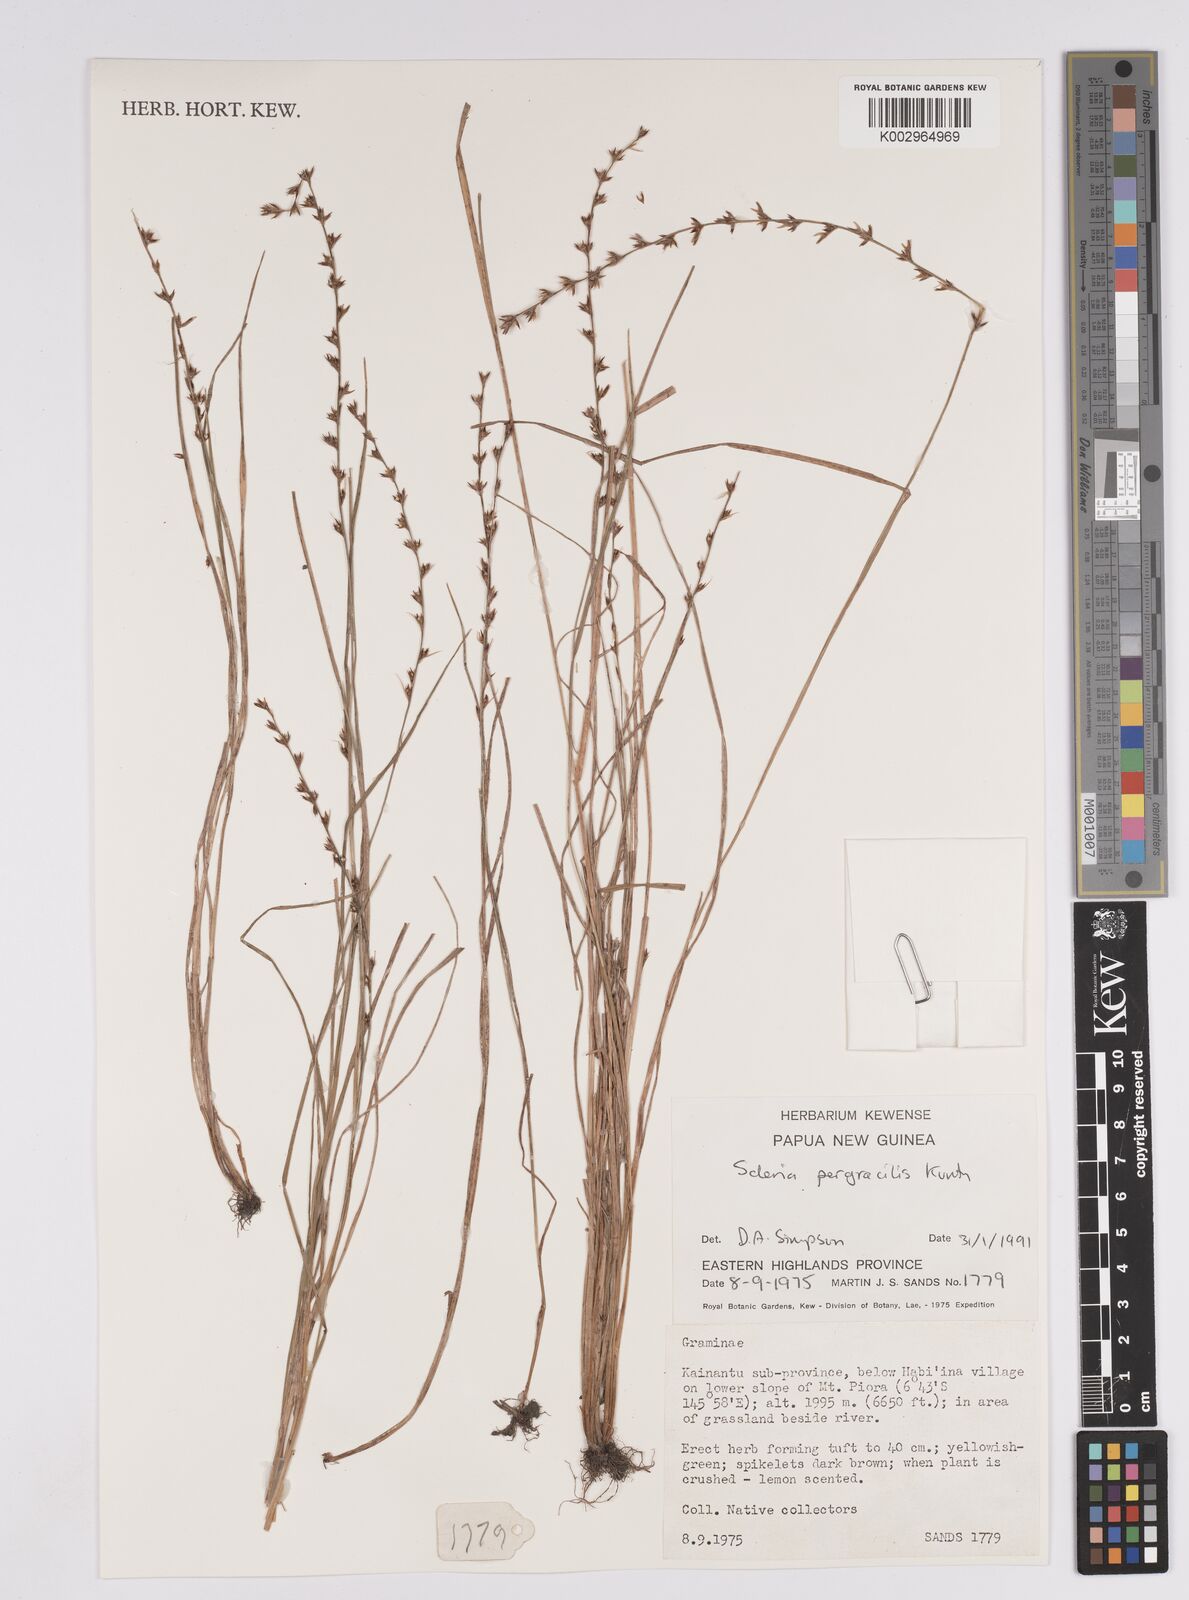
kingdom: Plantae
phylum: Tracheophyta
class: Liliopsida
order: Poales
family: Cyperaceae
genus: Scleria
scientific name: Scleria pergracilis
